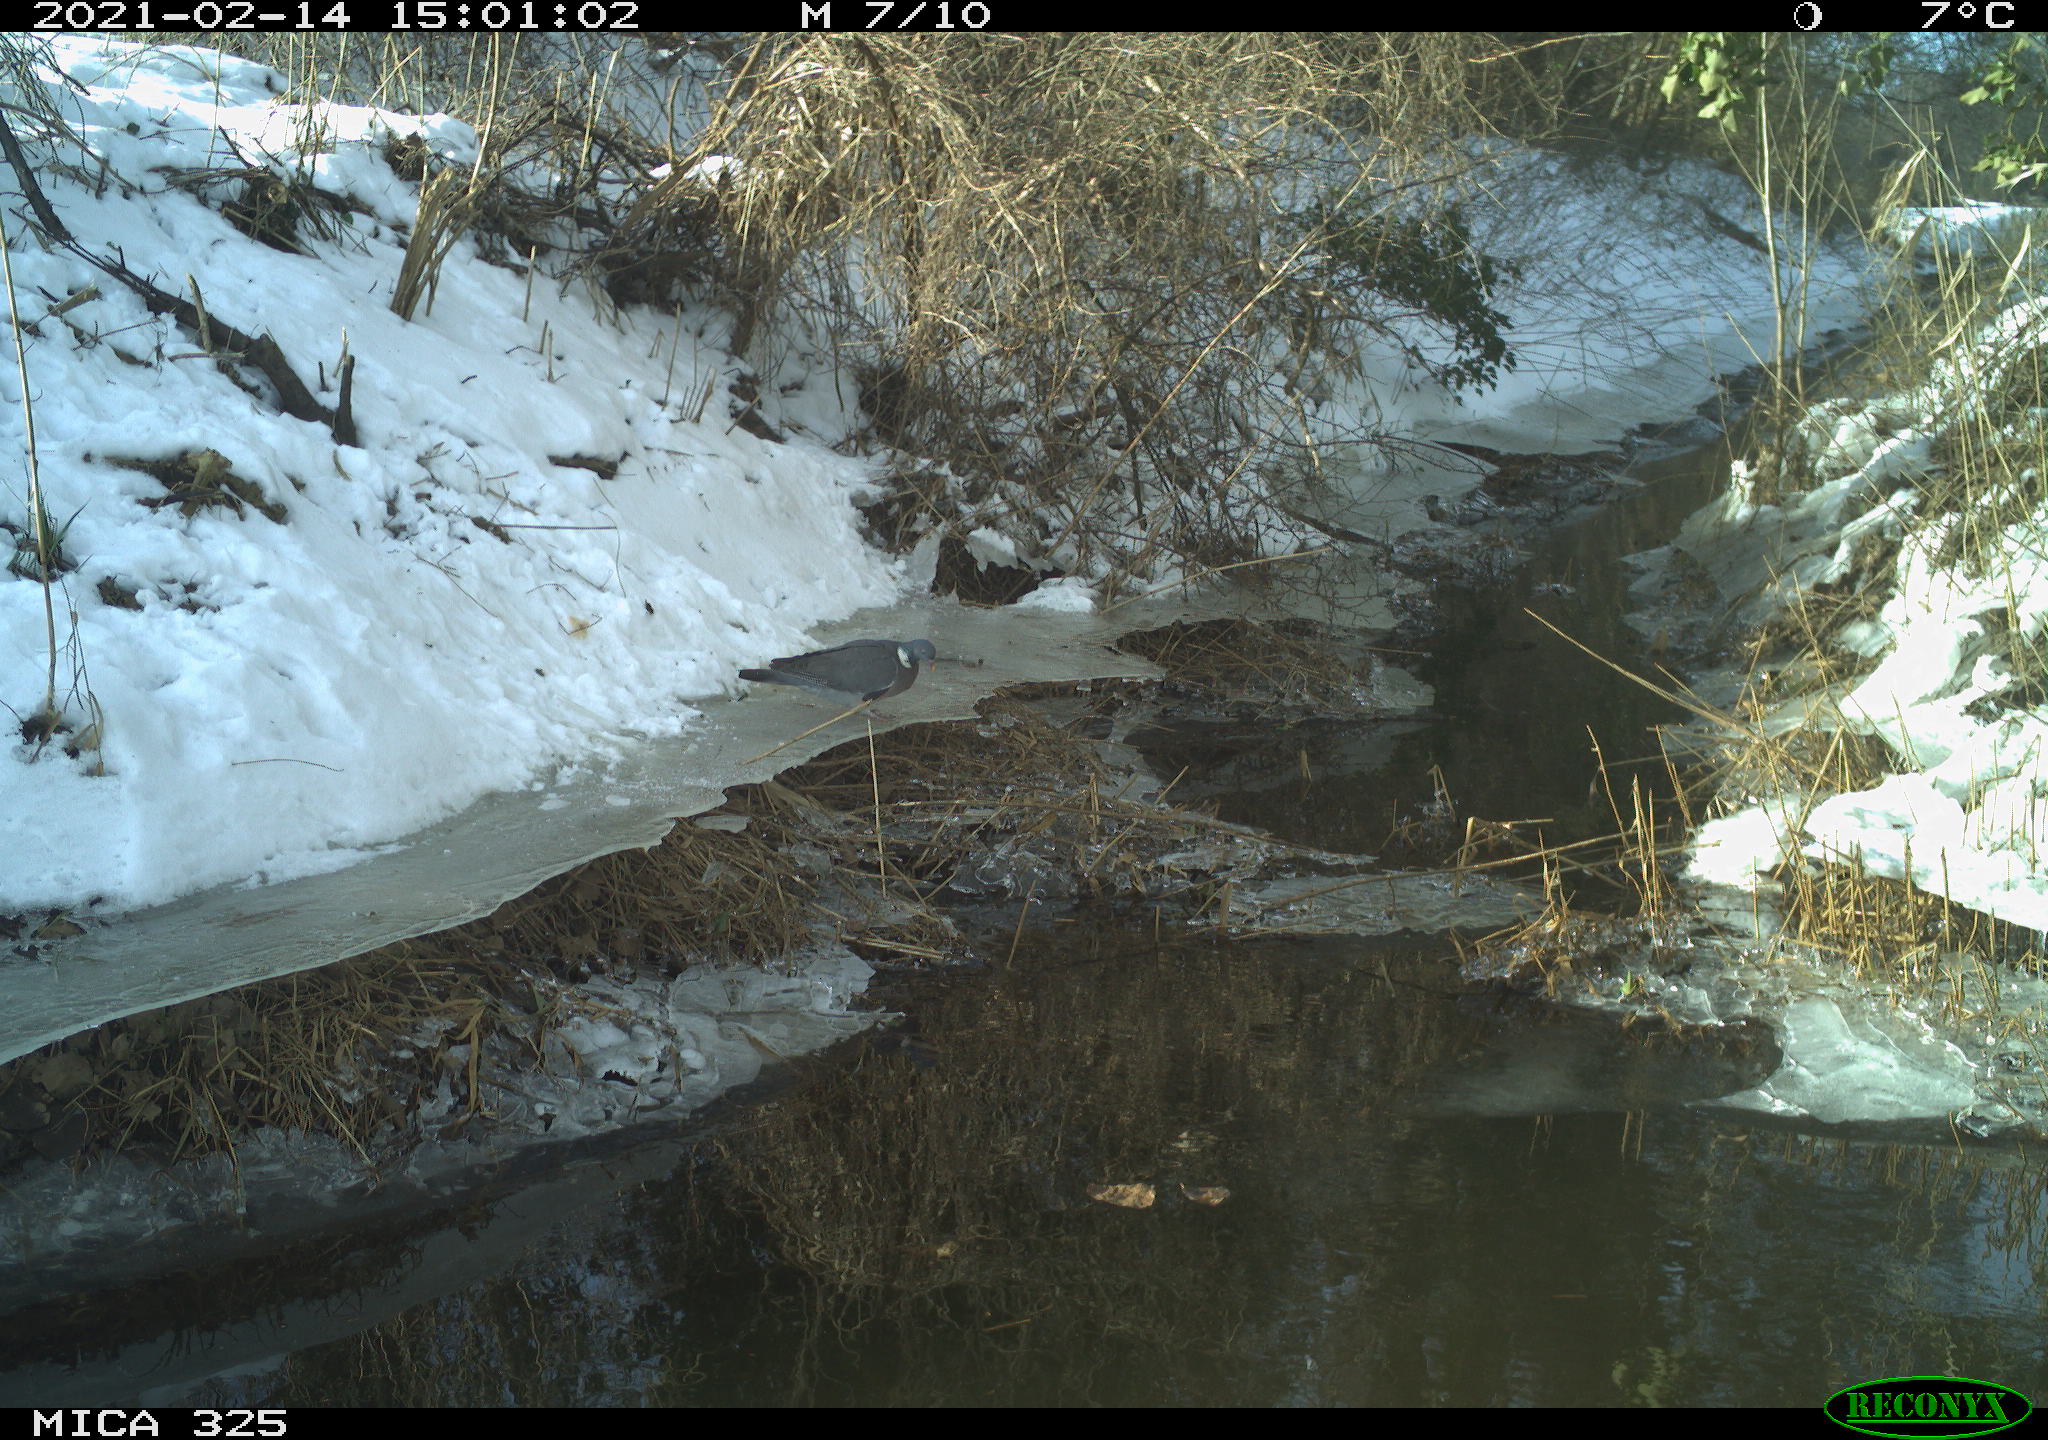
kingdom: Animalia
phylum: Chordata
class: Aves
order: Columbiformes
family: Columbidae
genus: Columba
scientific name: Columba palumbus
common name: Common wood pigeon
